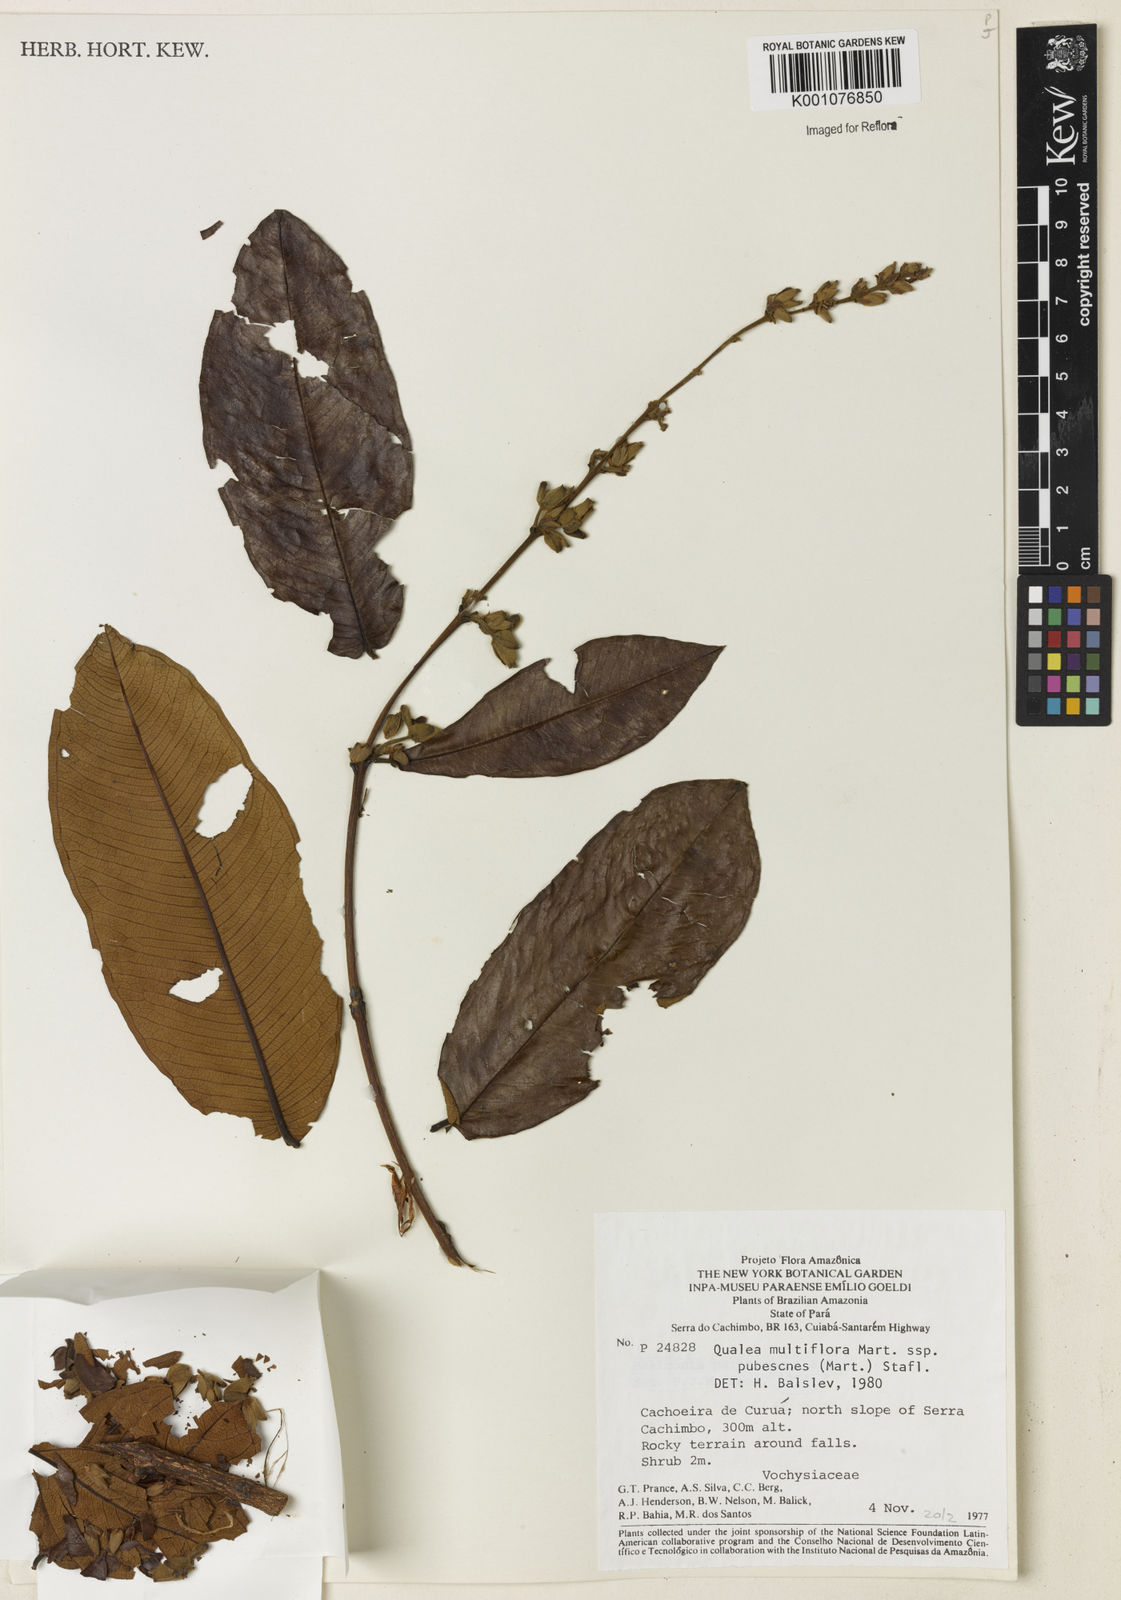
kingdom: Plantae
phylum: Tracheophyta
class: Magnoliopsida
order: Myrtales
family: Vochysiaceae
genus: Qualea
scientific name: Qualea multiflora
